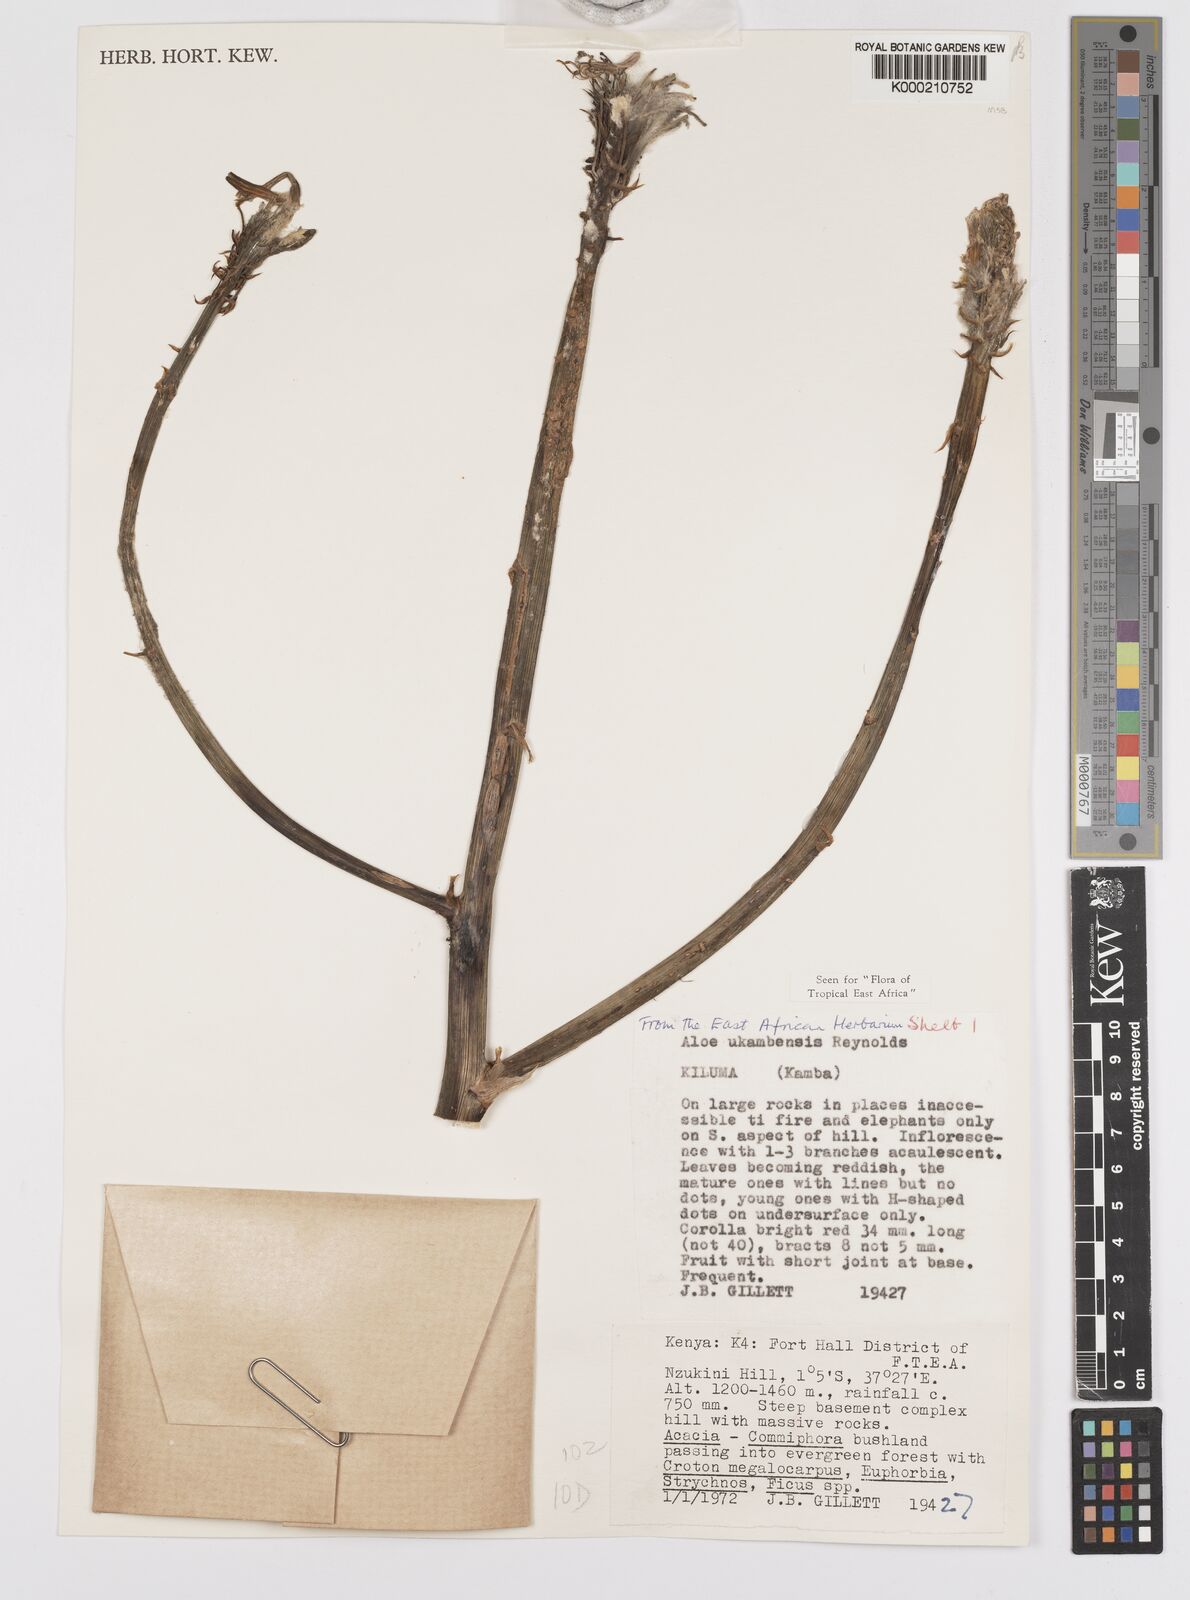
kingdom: Plantae
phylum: Tracheophyta
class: Liliopsida
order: Asparagales
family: Asphodelaceae
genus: Aloe
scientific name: Aloe ukambensis
